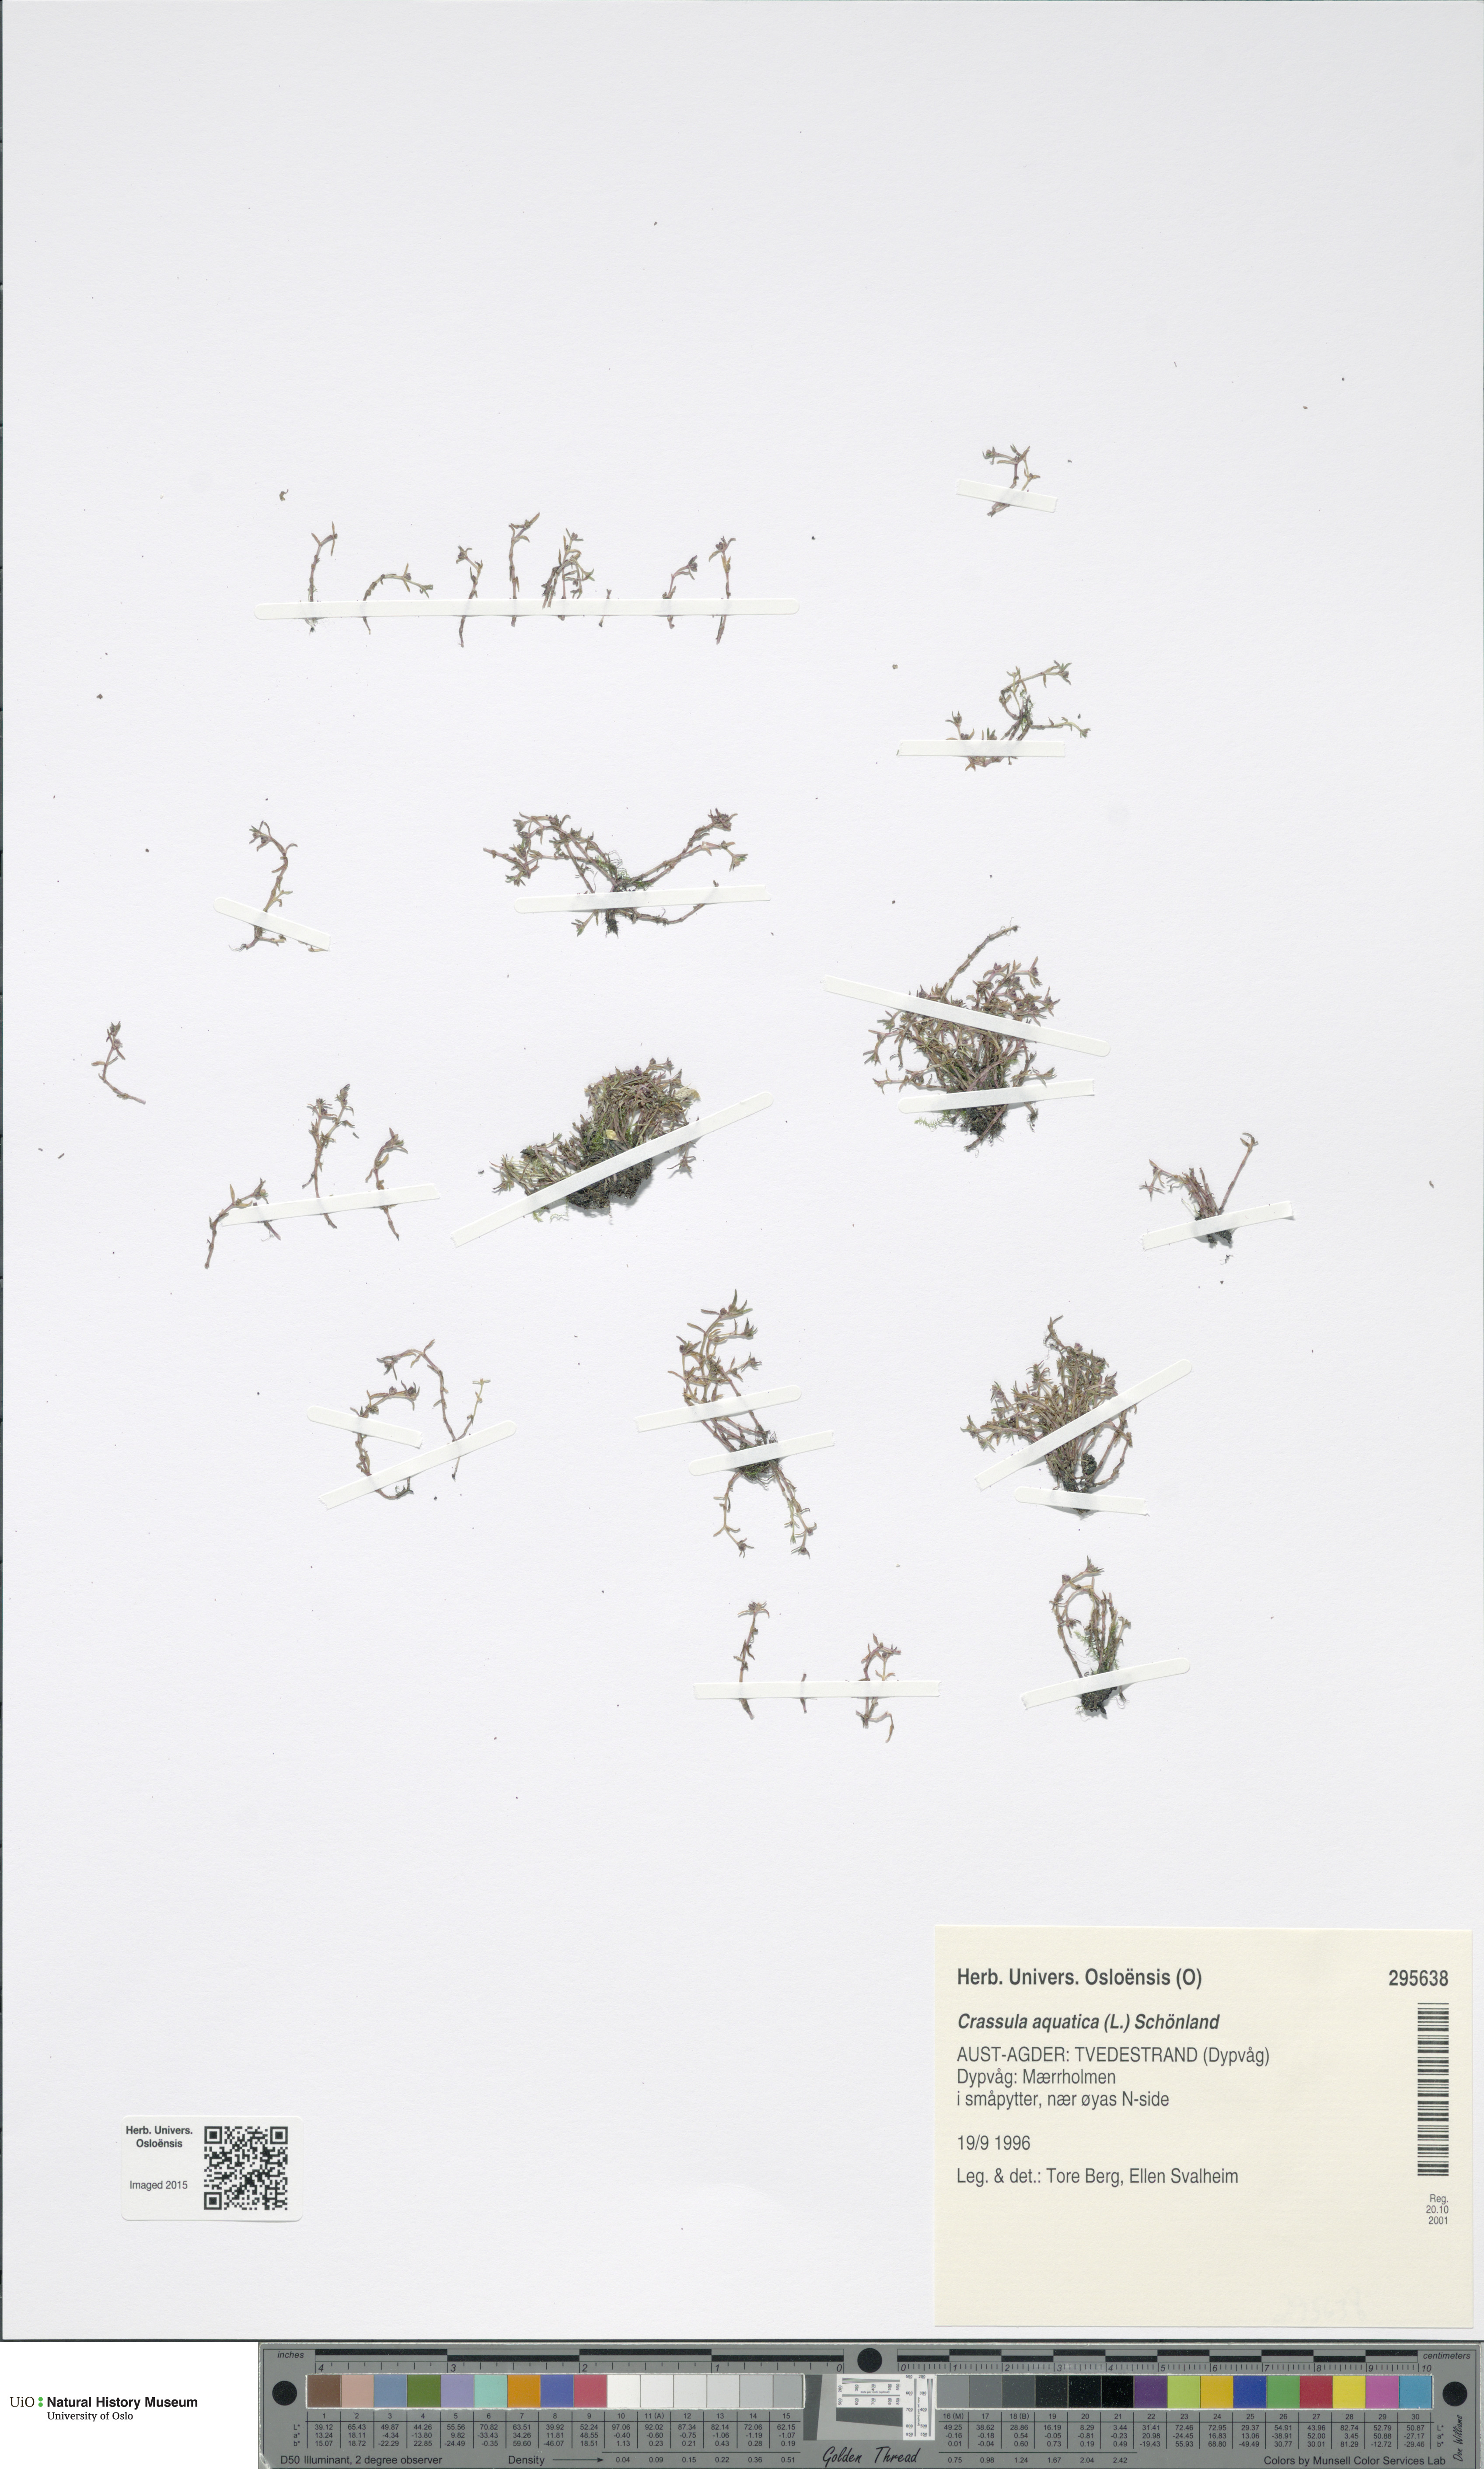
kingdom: Plantae
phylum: Tracheophyta
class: Magnoliopsida
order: Saxifragales
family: Crassulaceae
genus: Crassula
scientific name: Crassula aquatica
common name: Pigmyweed
